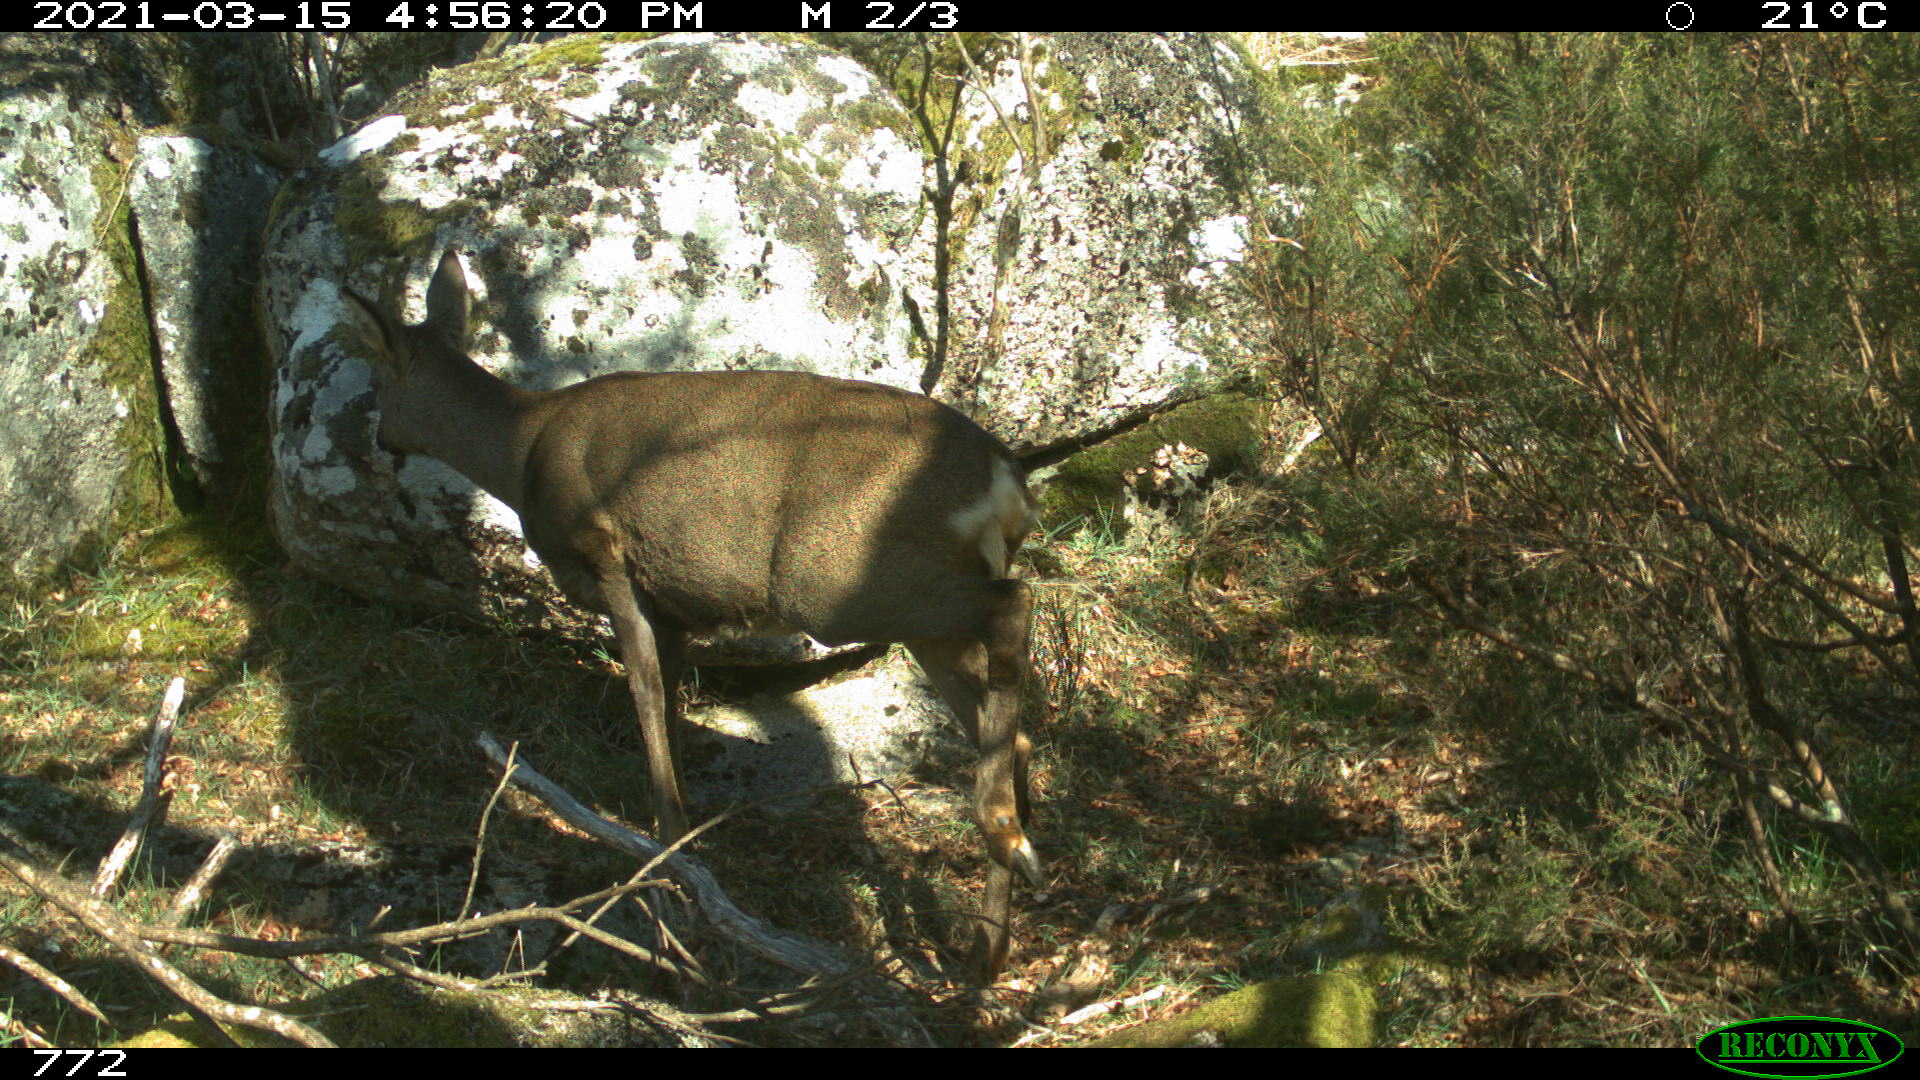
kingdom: Animalia
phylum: Chordata
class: Mammalia
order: Artiodactyla
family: Cervidae
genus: Capreolus
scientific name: Capreolus capreolus
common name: Western roe deer
